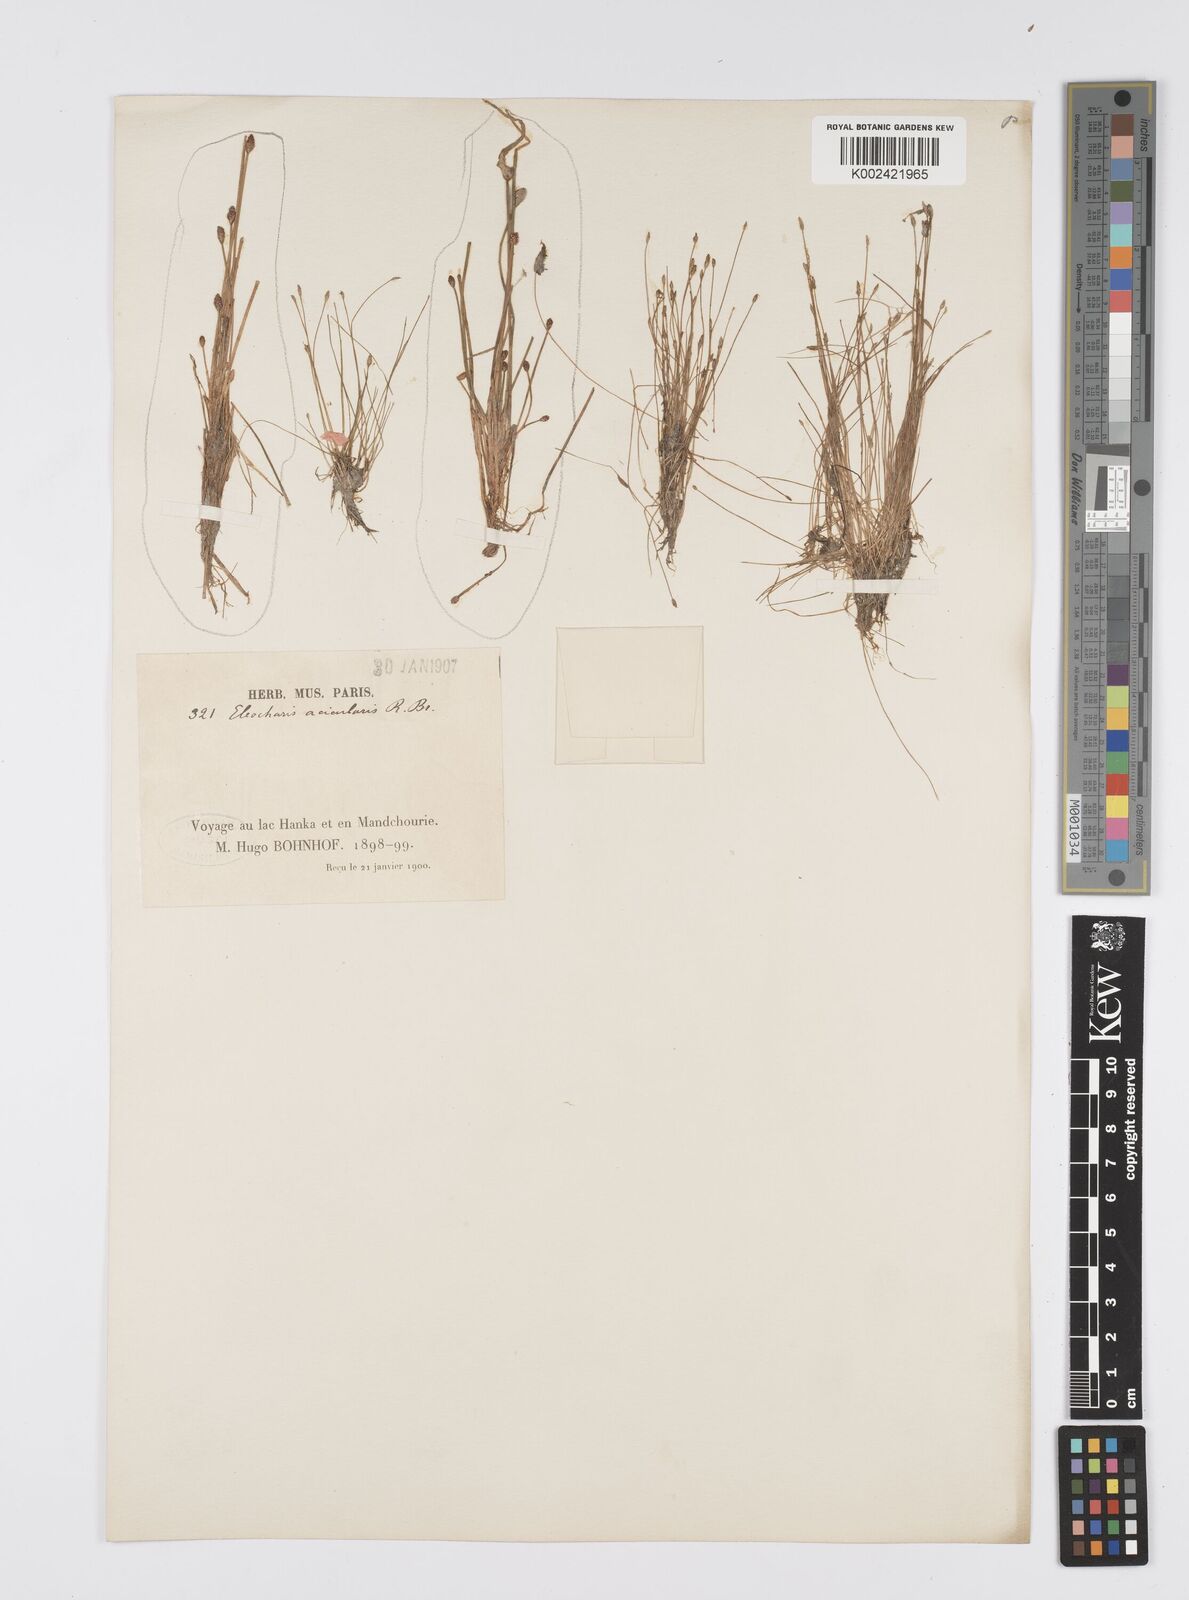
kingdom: Plantae
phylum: Tracheophyta
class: Liliopsida
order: Poales
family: Cyperaceae
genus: Eleocharis
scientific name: Eleocharis acicularis
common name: Needle spike-rush
